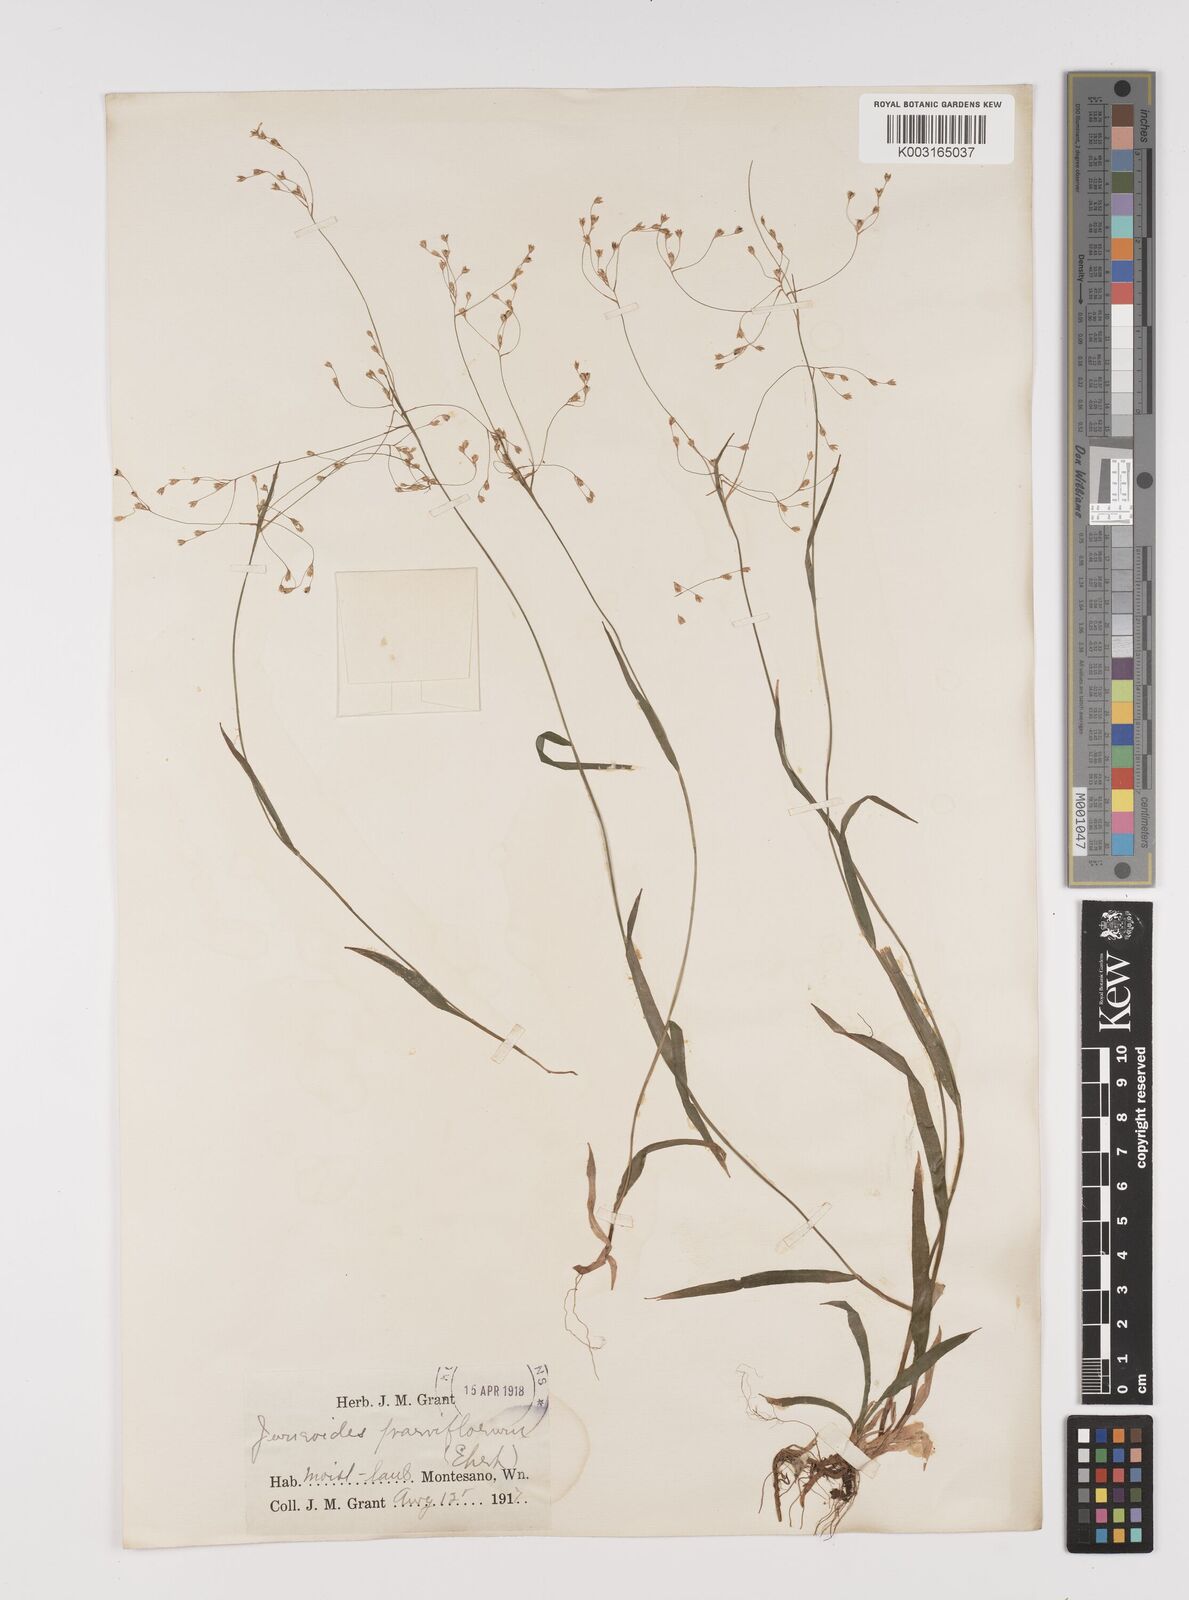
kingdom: Plantae
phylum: Tracheophyta
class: Liliopsida
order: Poales
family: Juncaceae
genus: Luzula
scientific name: Luzula parviflora
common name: Millet woodrush
